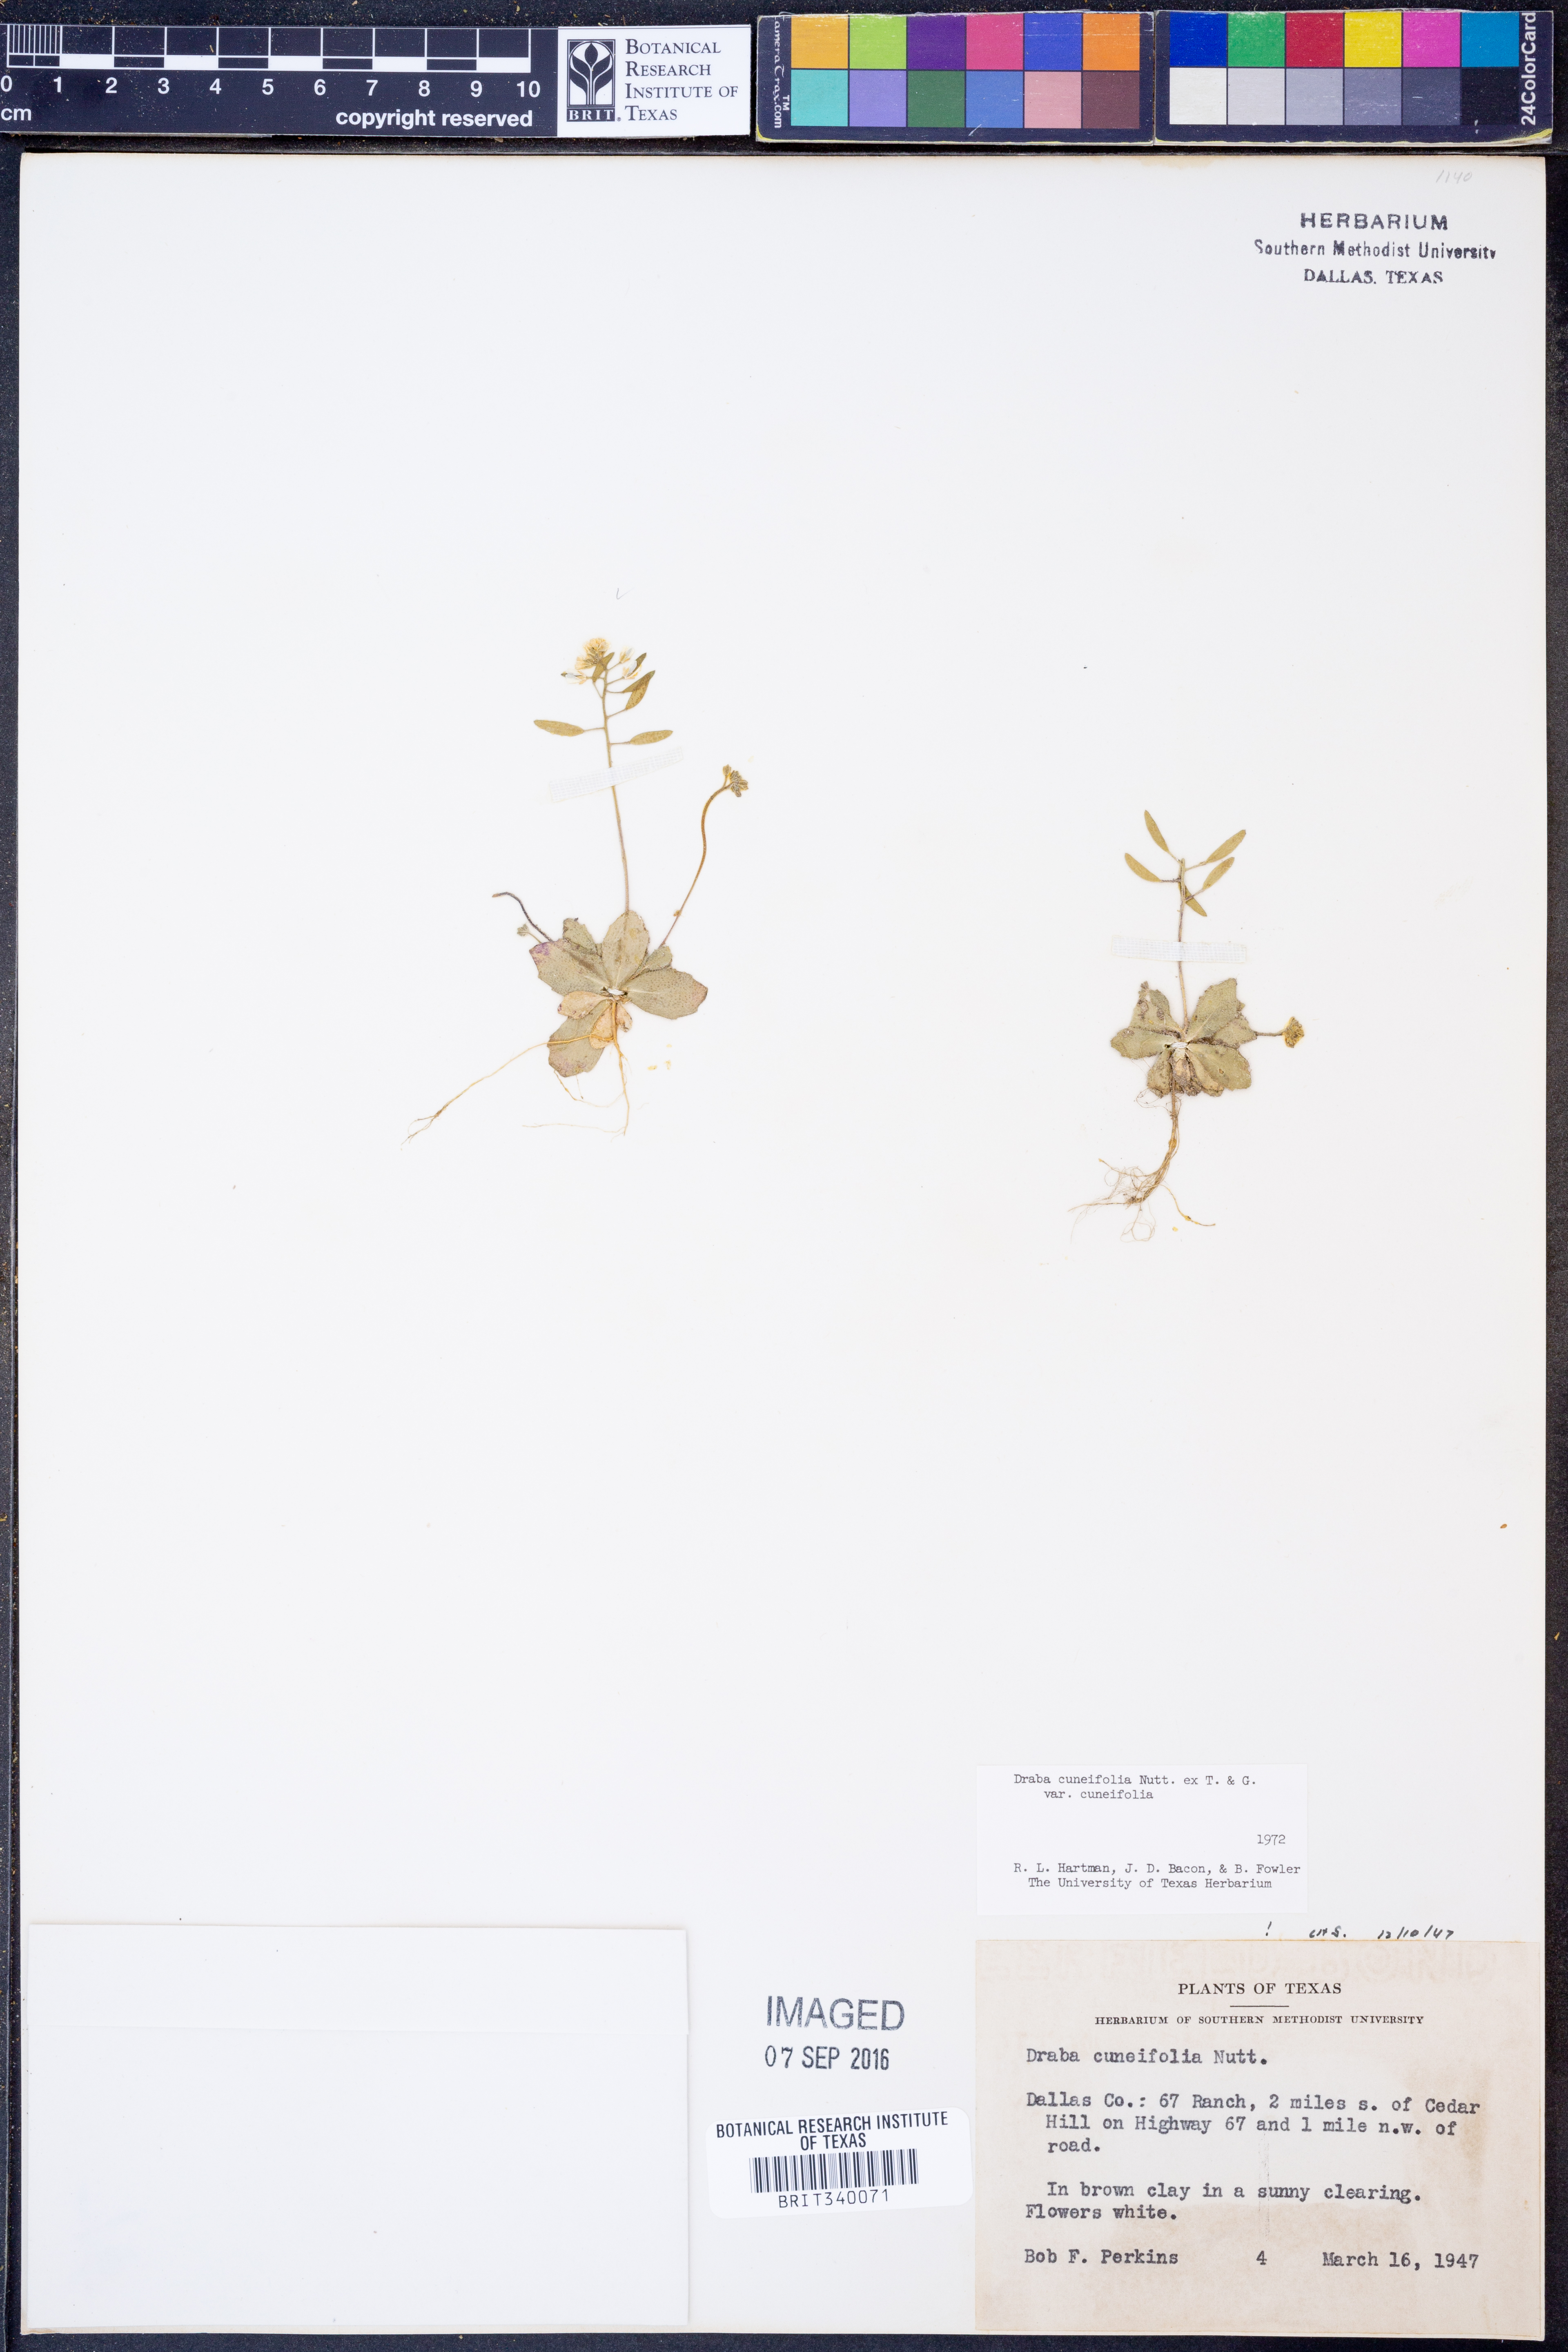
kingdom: Plantae
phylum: Tracheophyta
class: Magnoliopsida
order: Brassicales
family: Brassicaceae
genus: Tomostima
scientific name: Tomostima cuneifolia
